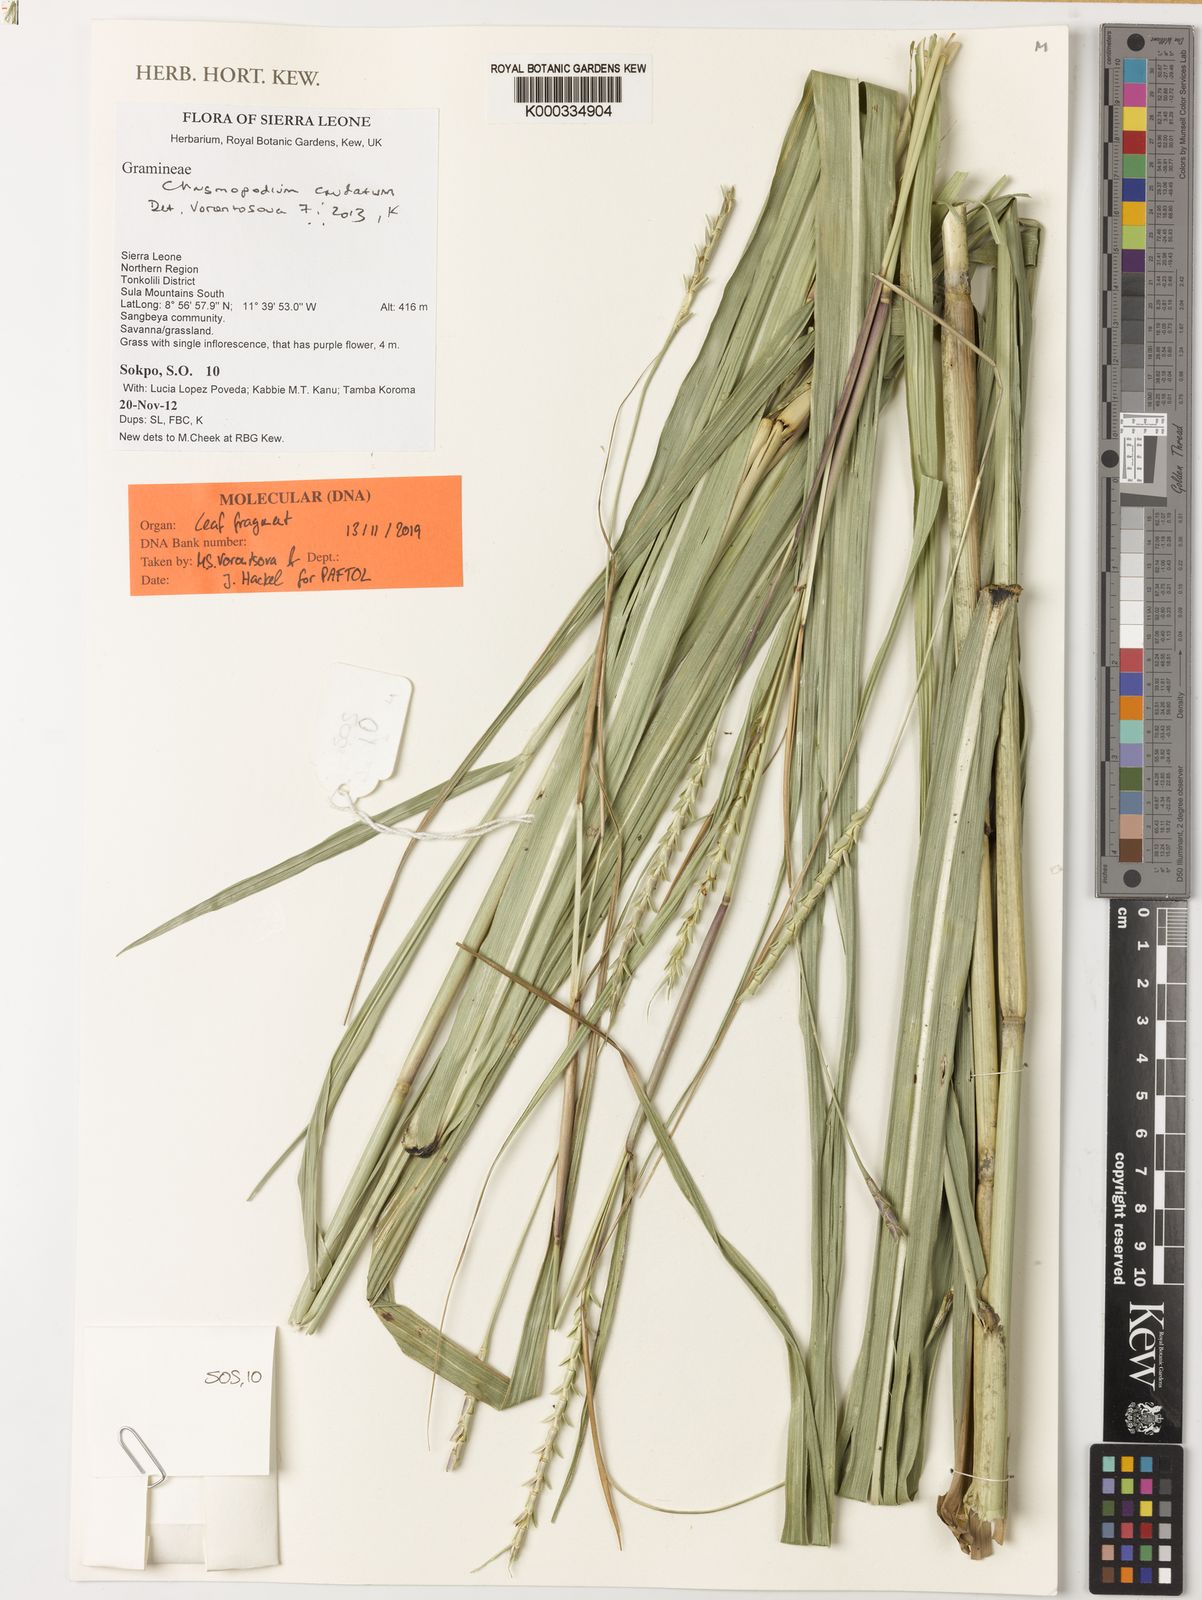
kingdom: Plantae
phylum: Tracheophyta
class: Liliopsida
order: Poales
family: Poaceae
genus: Chasmopodium
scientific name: Chasmopodium caudatum
